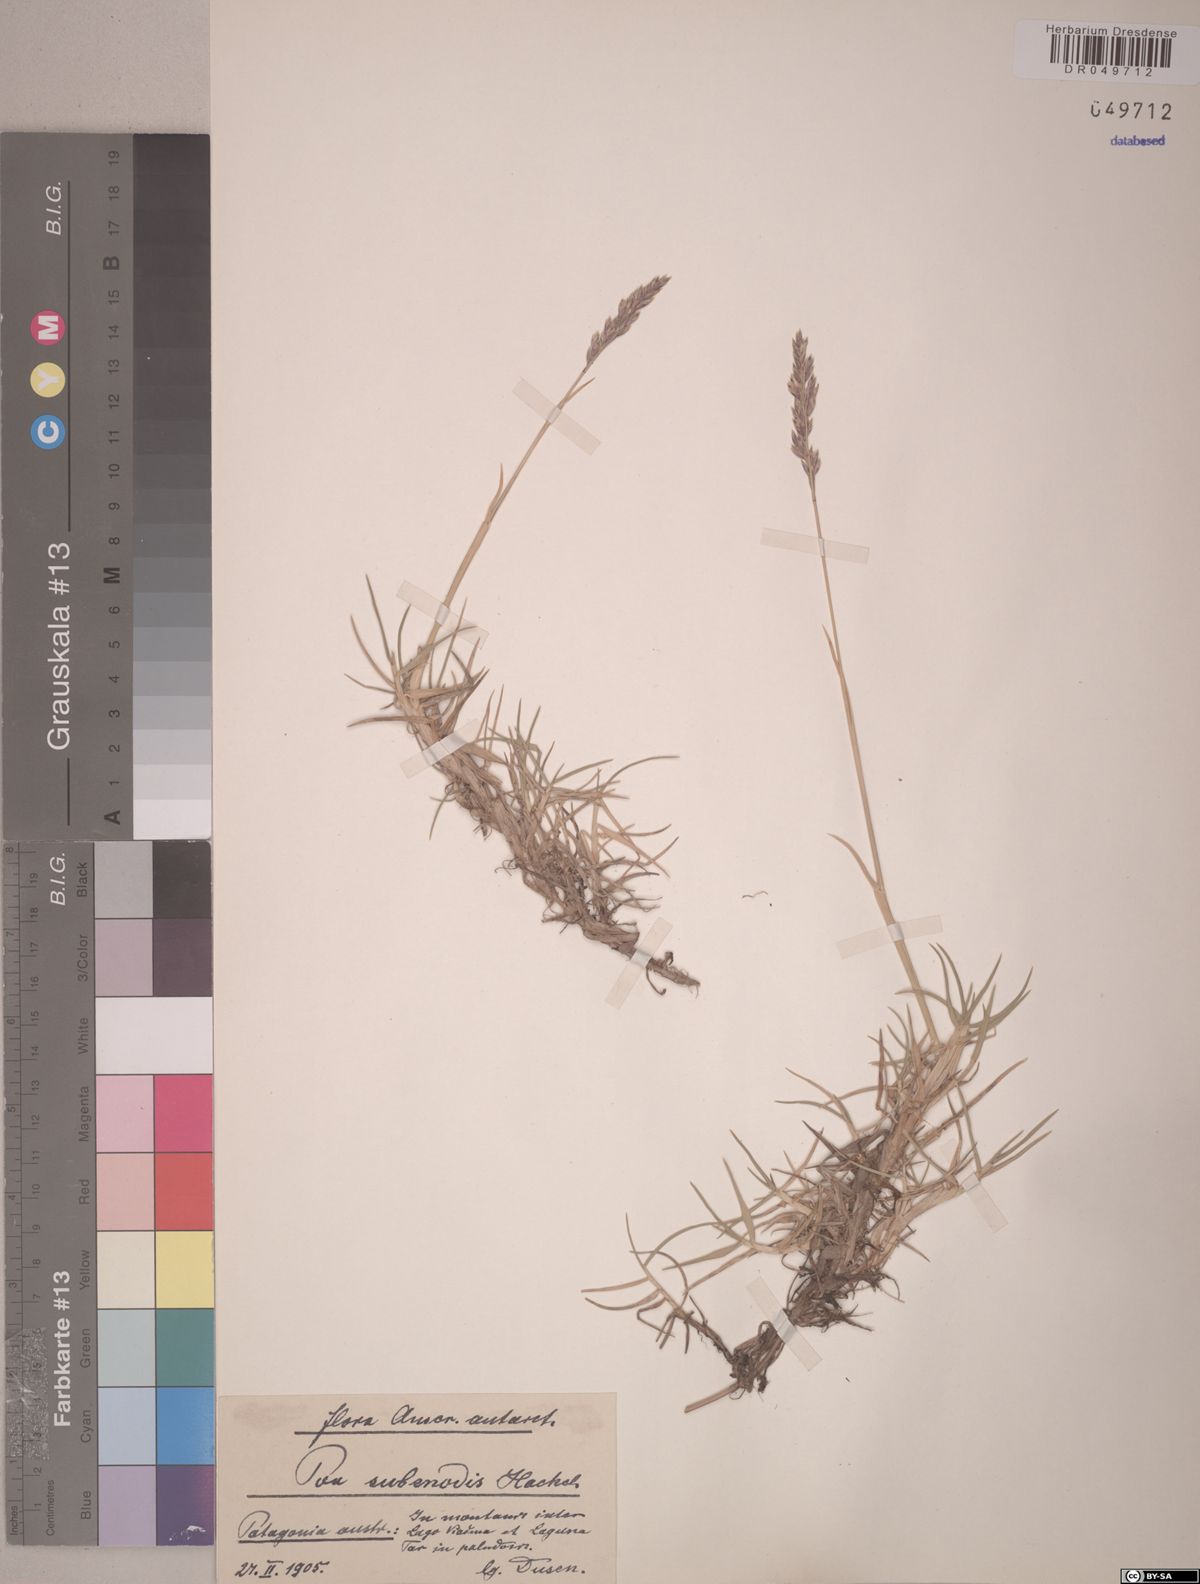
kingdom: Plantae
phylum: Tracheophyta
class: Liliopsida
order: Poales
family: Poaceae
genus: Nicoraepoa
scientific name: Nicoraepoa subenervis
